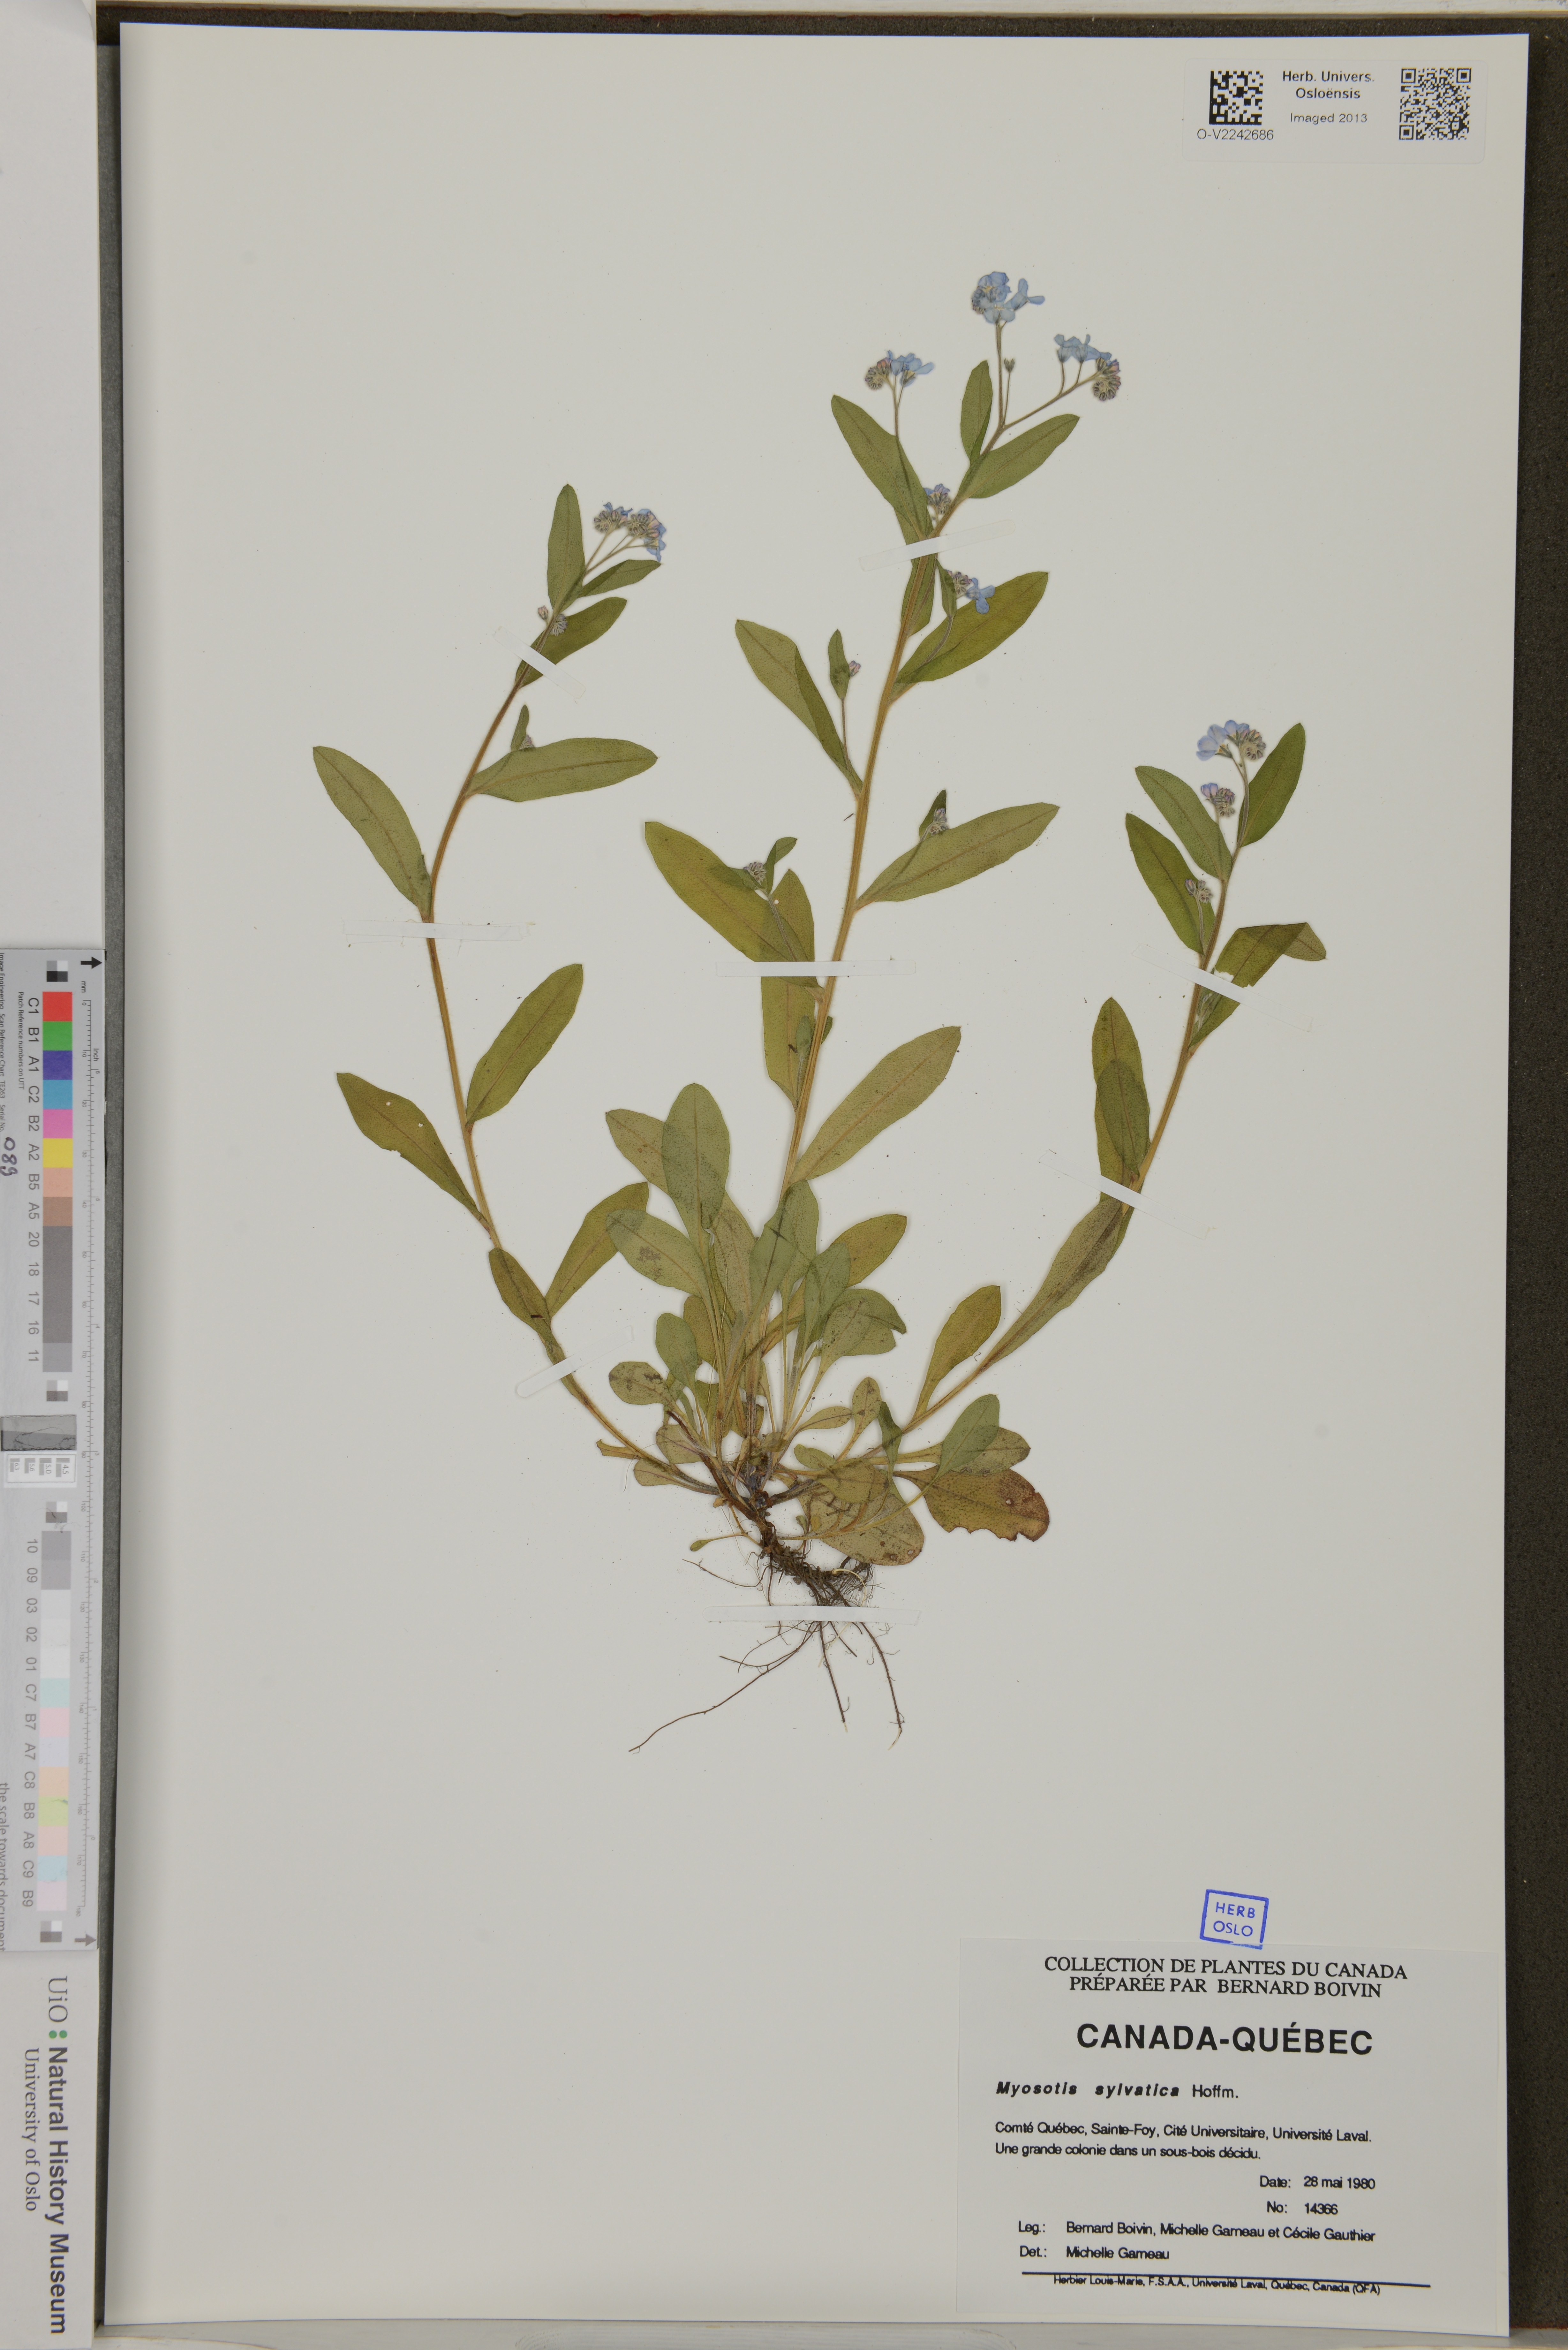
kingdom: Plantae
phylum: Tracheophyta
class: Magnoliopsida
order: Boraginales
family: Boraginaceae
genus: Myosotis
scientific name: Myosotis sylvatica
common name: Wood forget-me-not
